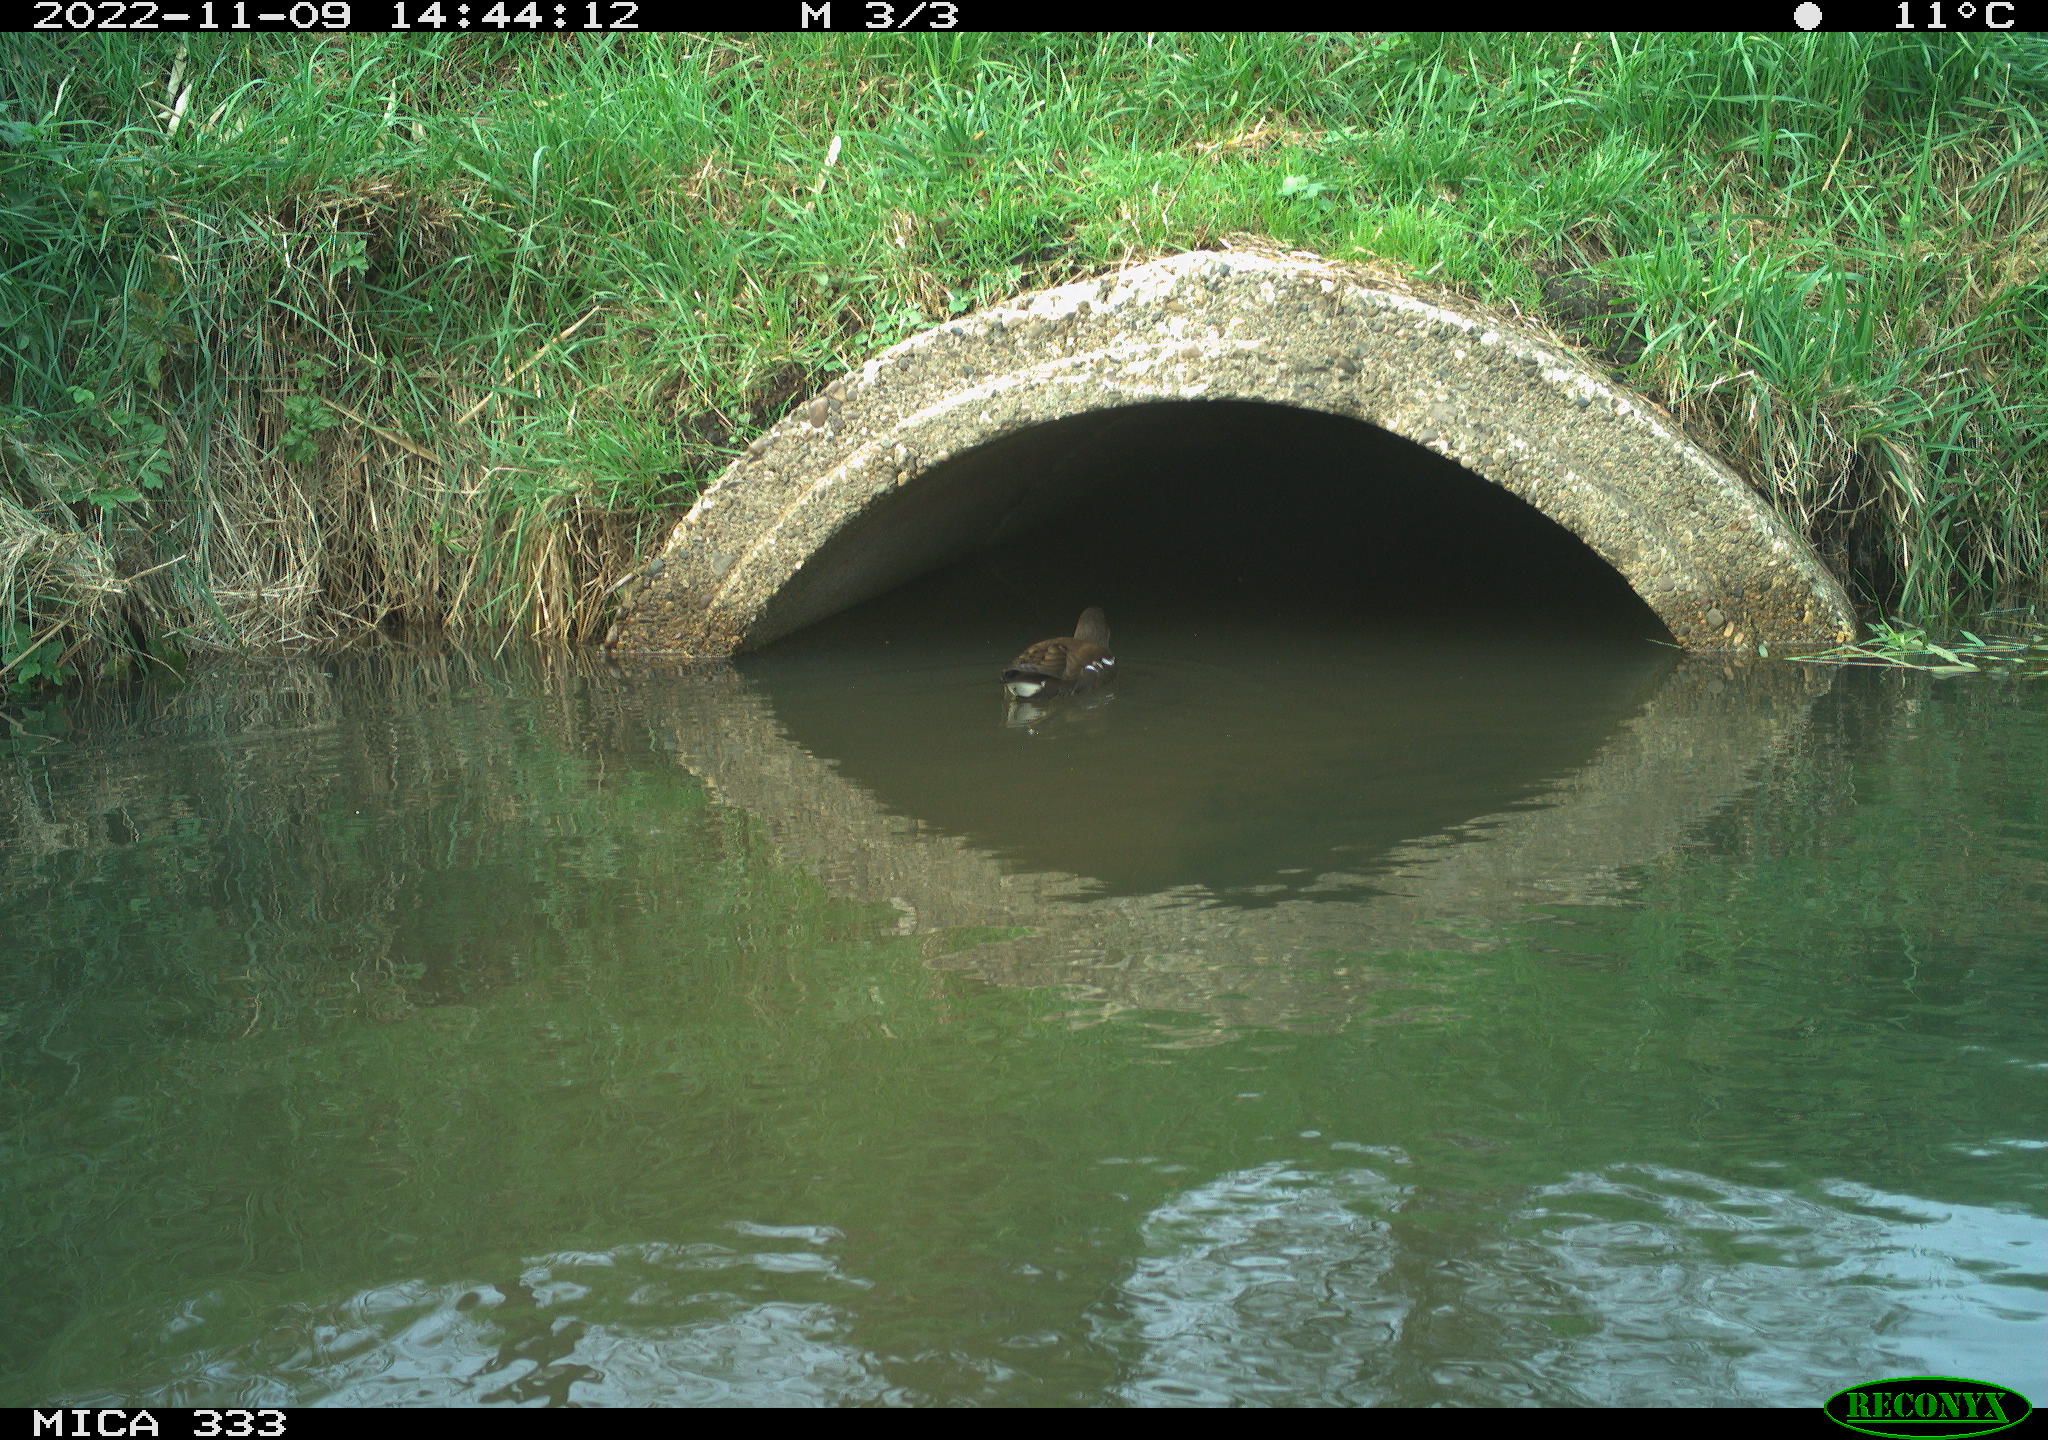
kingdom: Animalia
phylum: Chordata
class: Aves
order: Gruiformes
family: Rallidae
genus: Gallinula
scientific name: Gallinula chloropus
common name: Common moorhen
